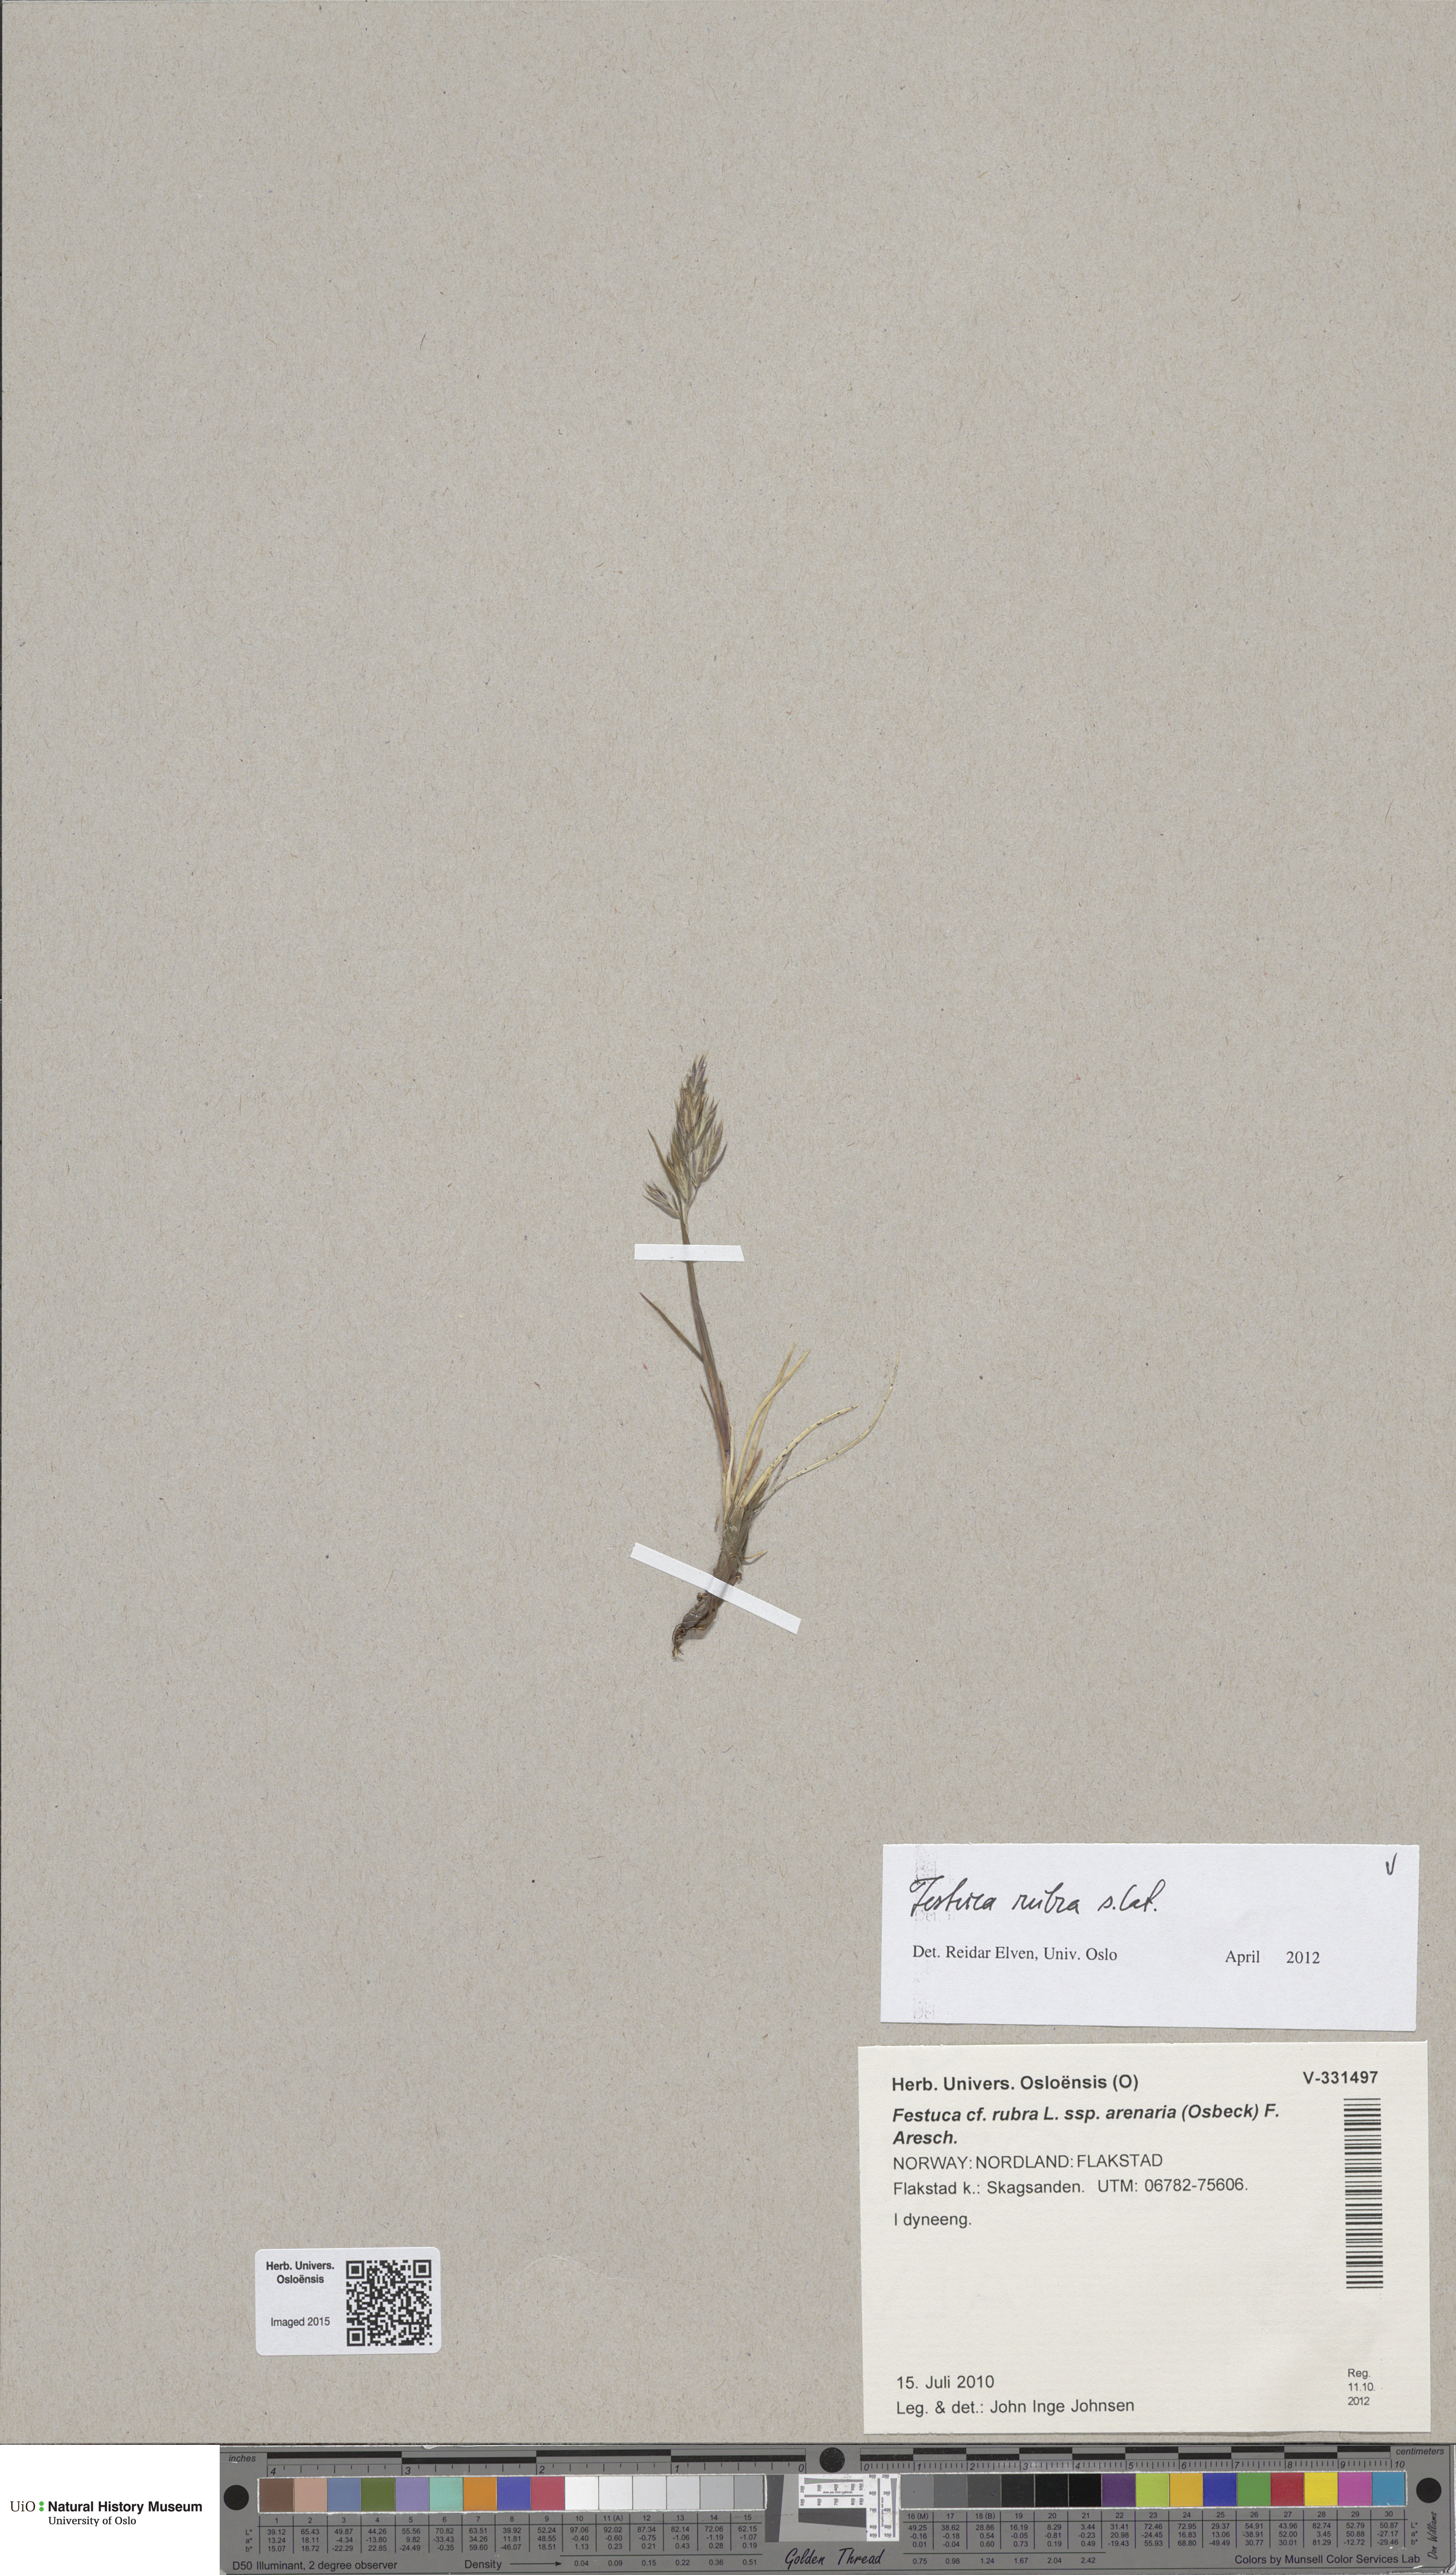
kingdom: Plantae
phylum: Tracheophyta
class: Liliopsida
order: Poales
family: Poaceae
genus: Festuca
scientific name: Festuca rubra
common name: Red fescue
